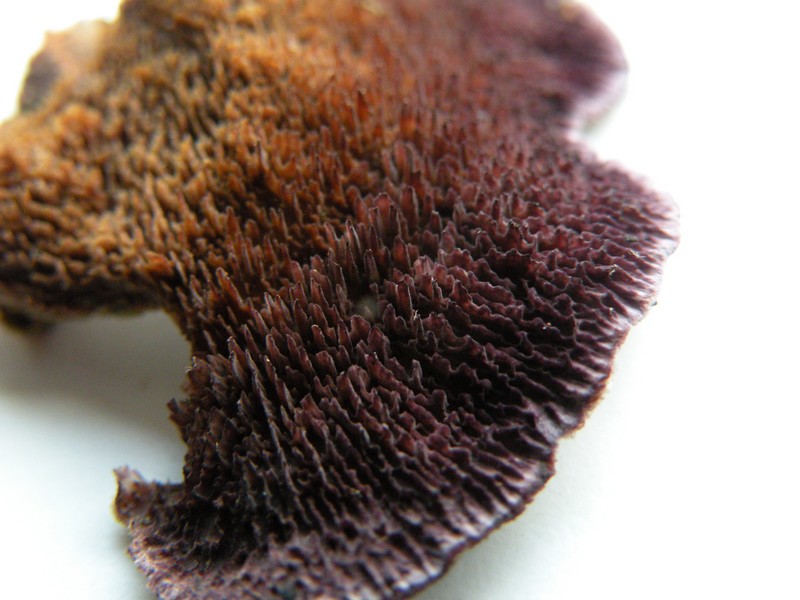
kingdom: Fungi
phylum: Basidiomycota
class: Agaricomycetes
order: Hymenochaetales
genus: Trichaptum
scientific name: Trichaptum fuscoviolaceum
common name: tandet violporesvamp
